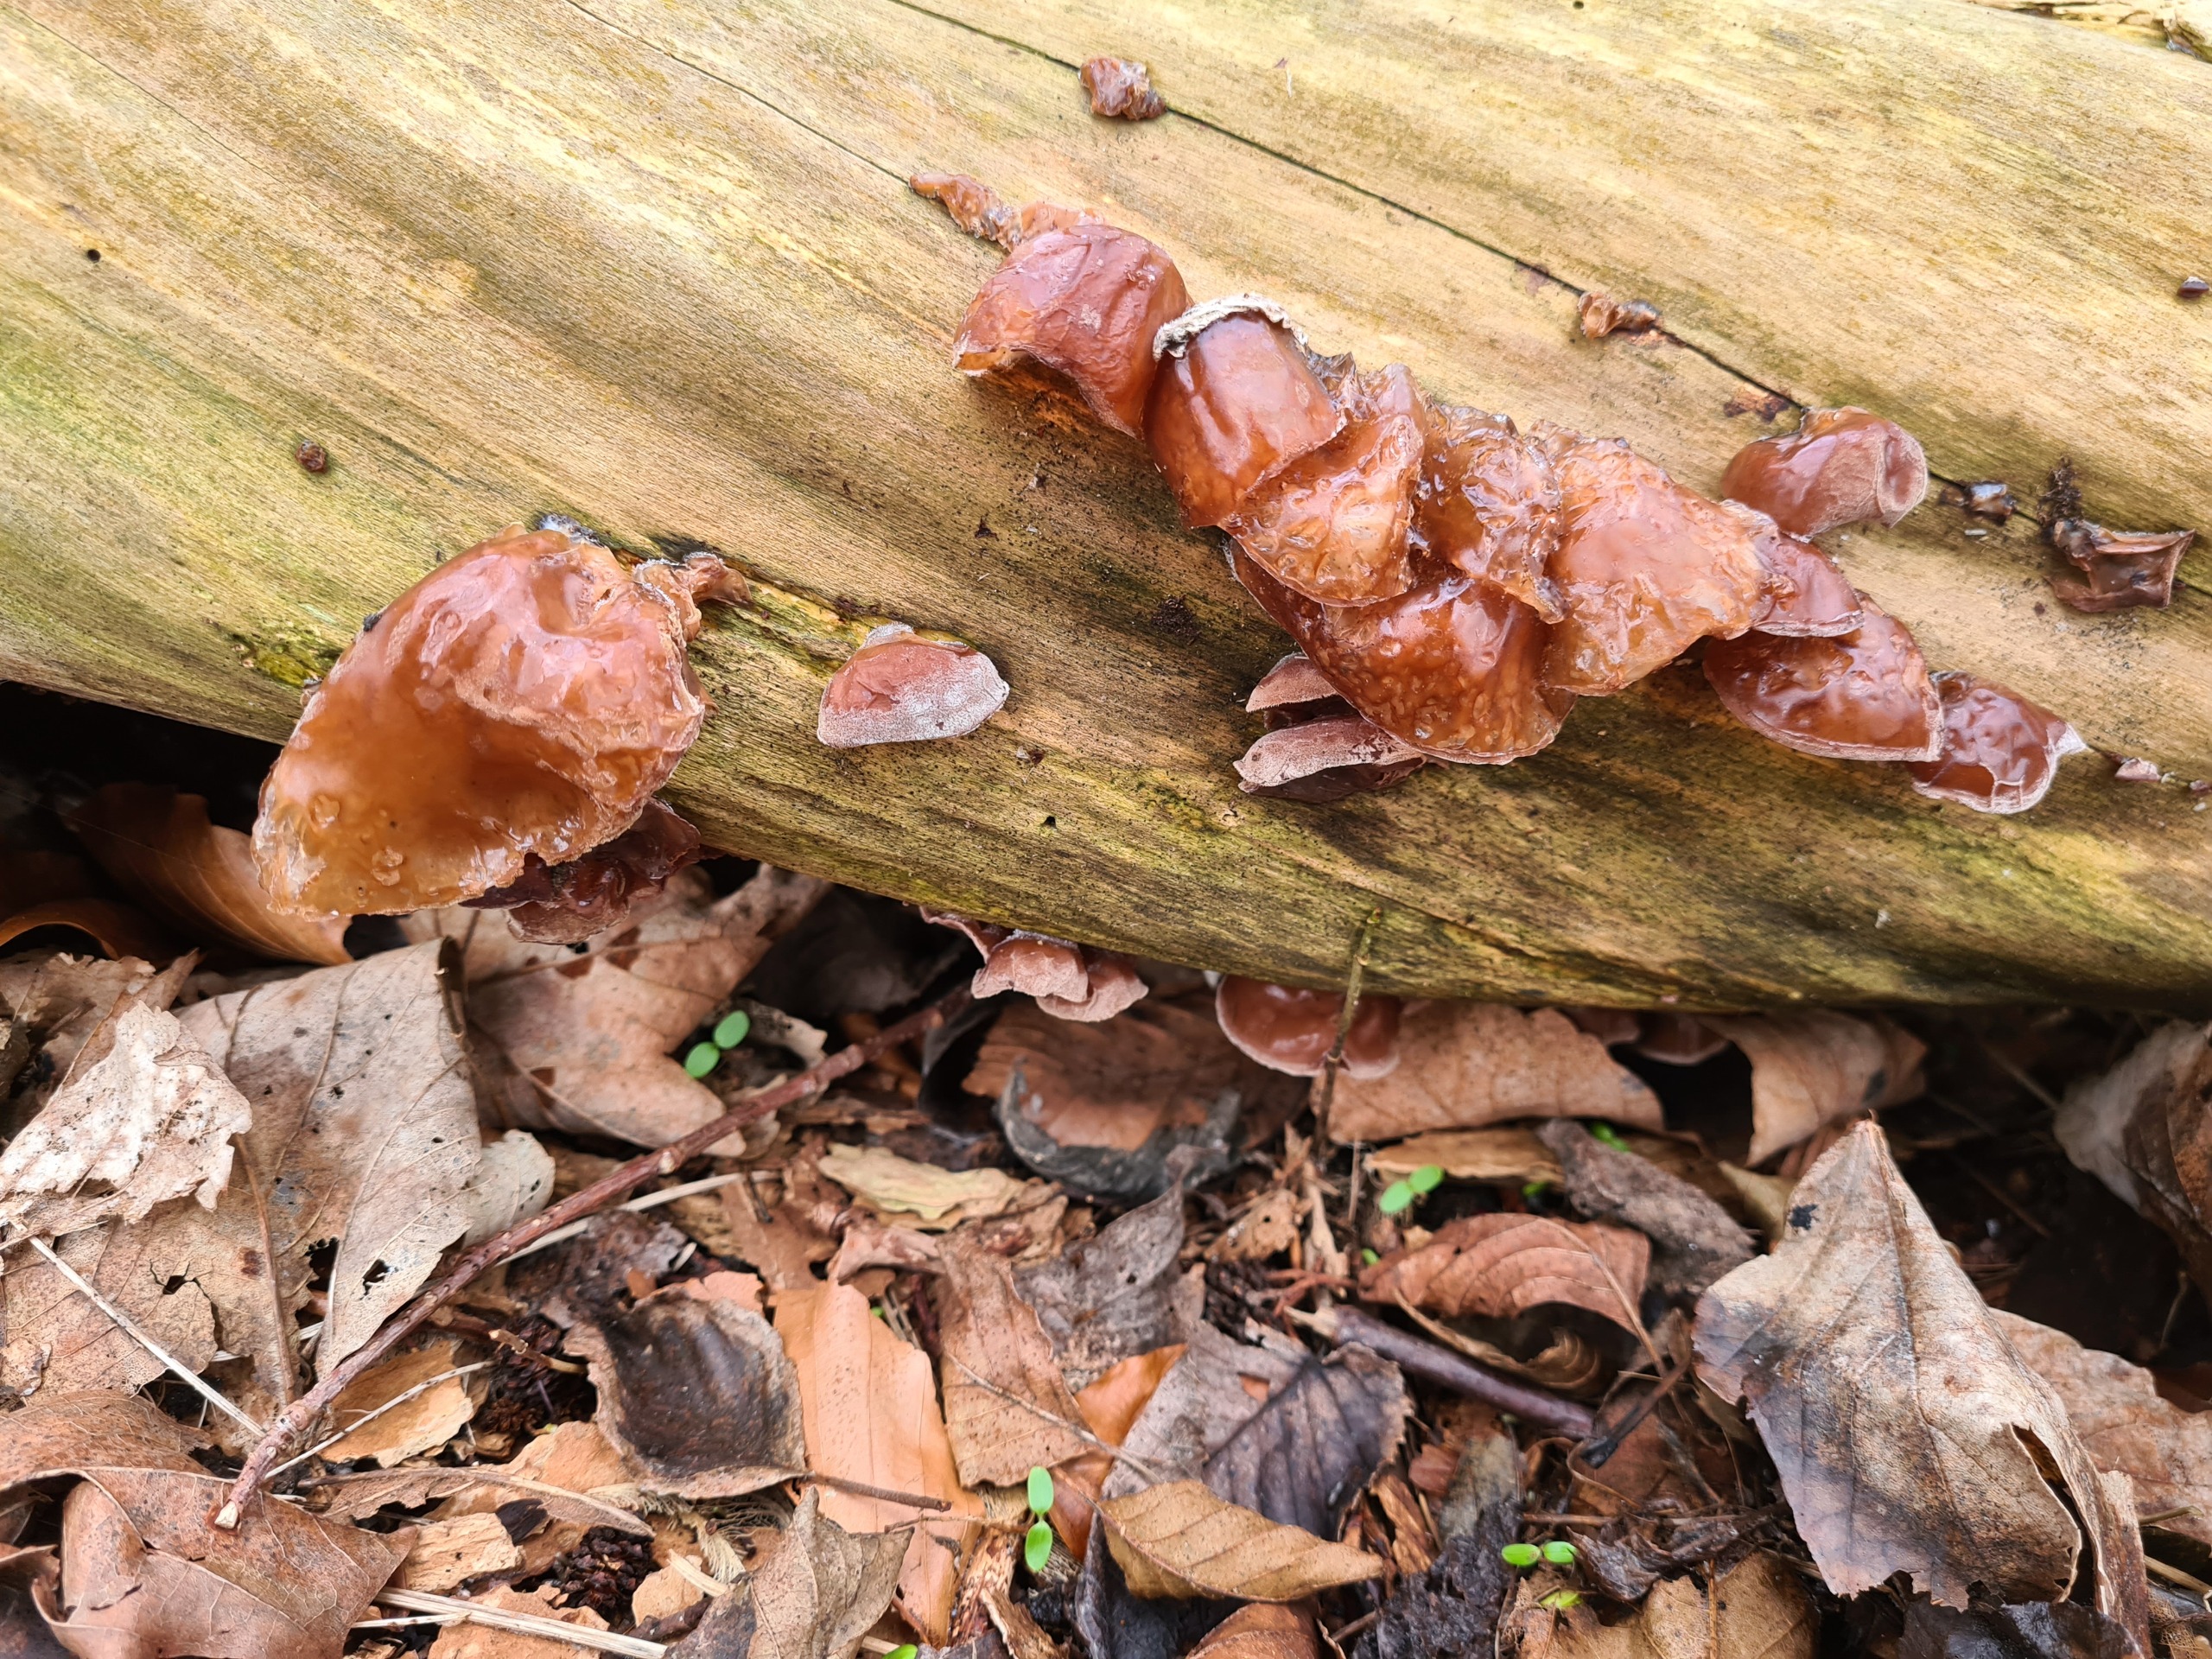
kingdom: Fungi
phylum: Basidiomycota
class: Agaricomycetes
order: Auriculariales
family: Auriculariaceae
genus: Auricularia
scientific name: Auricularia auricula-judae
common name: Almindelig judasøre
